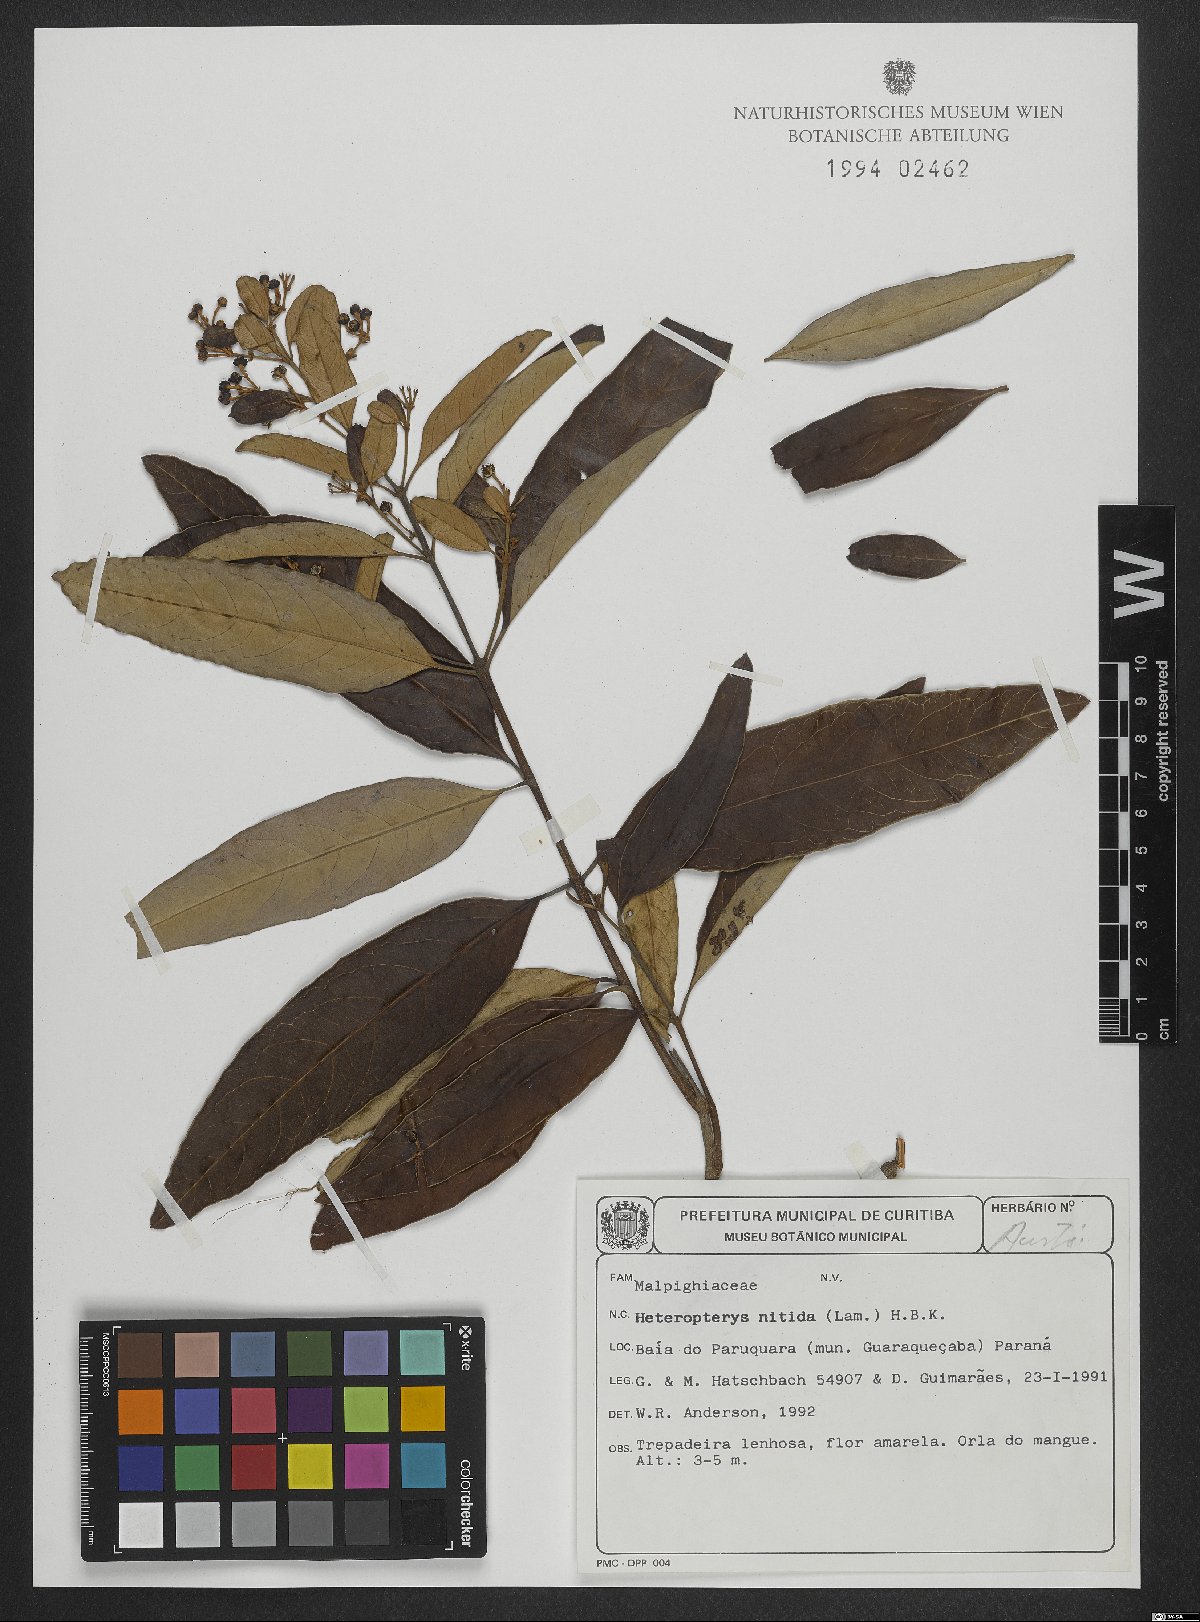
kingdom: Plantae
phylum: Tracheophyta
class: Magnoliopsida
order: Malpighiales
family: Malpighiaceae
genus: Heteropterys
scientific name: Heteropterys nitida
